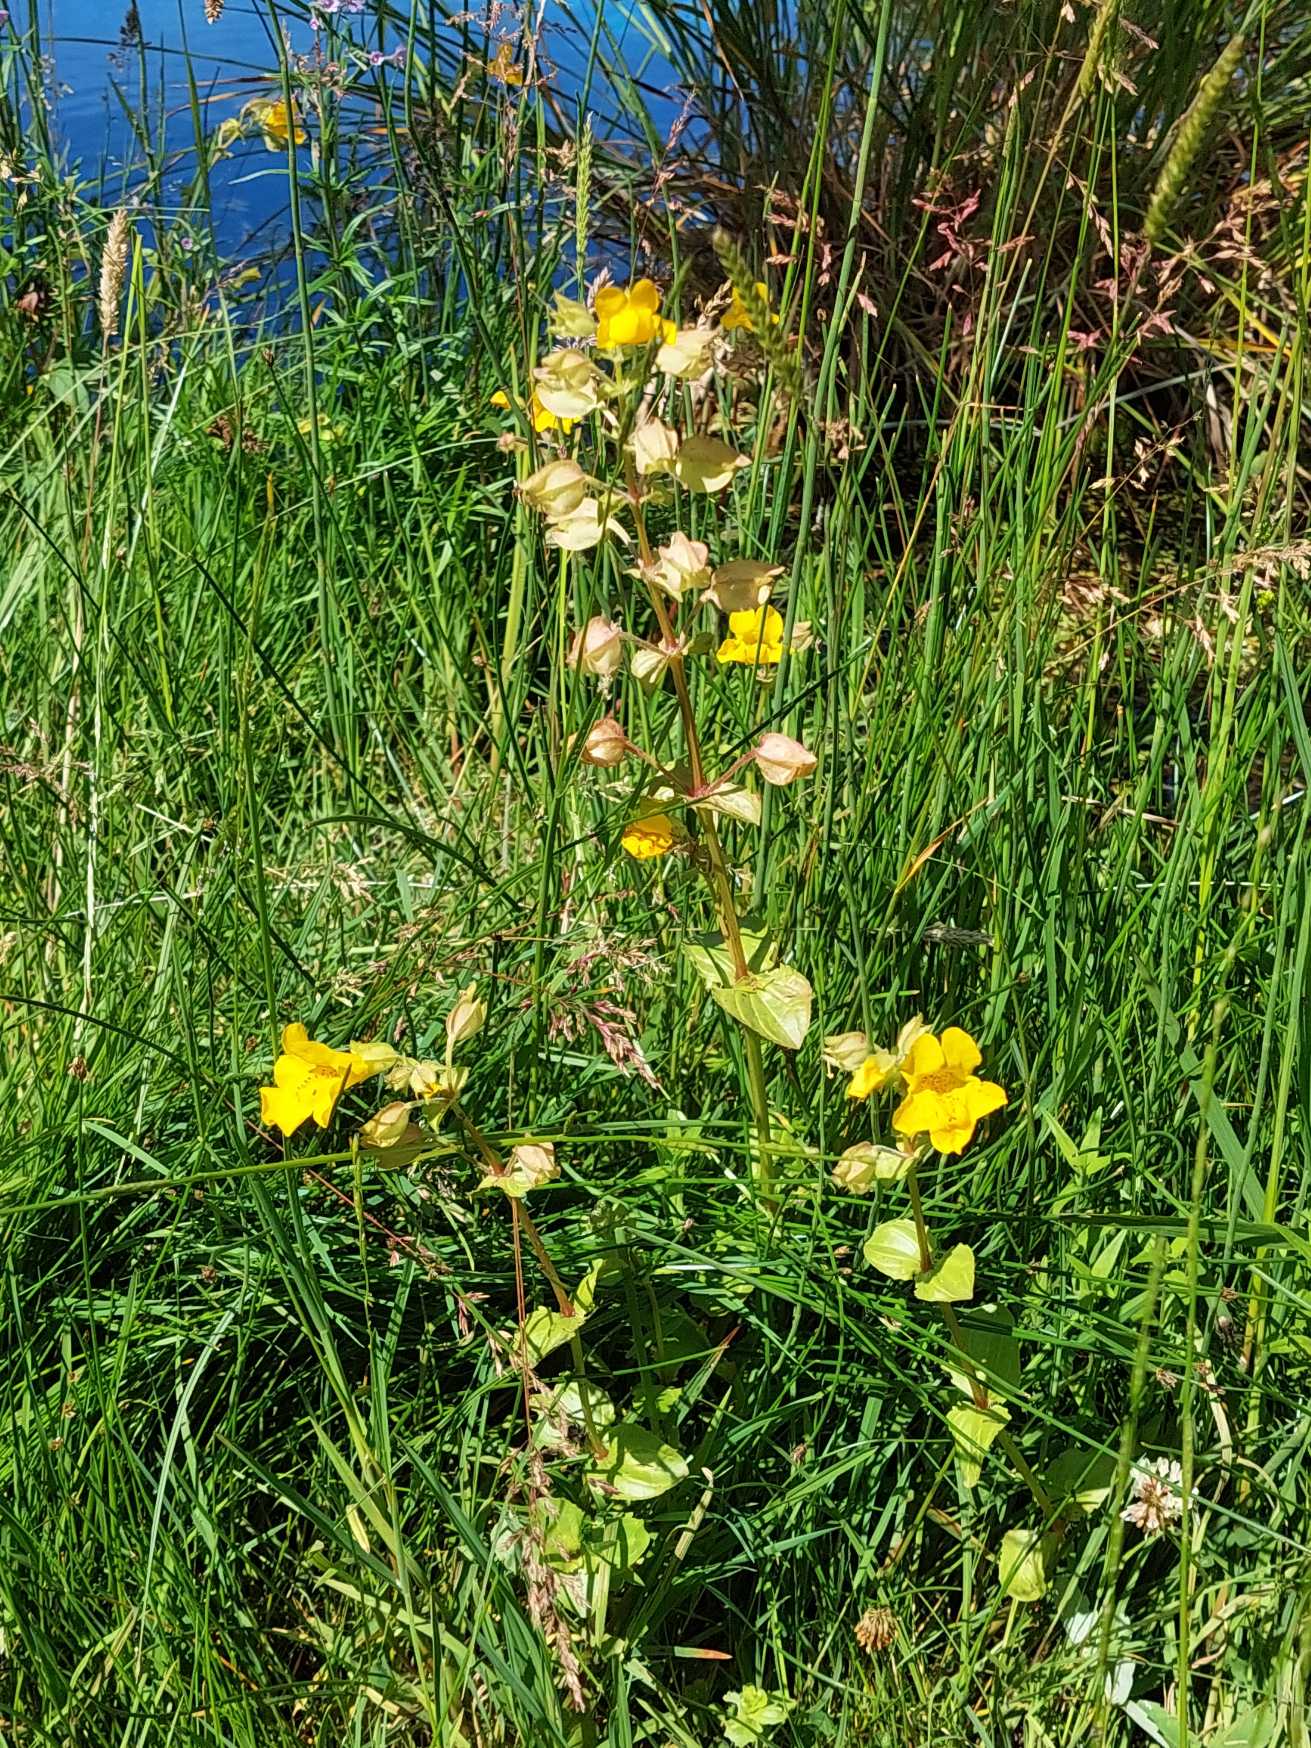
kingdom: Plantae
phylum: Tracheophyta
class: Magnoliopsida
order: Lamiales
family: Phrymaceae
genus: Erythranthe
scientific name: Erythranthe guttata
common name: Abeblomst
